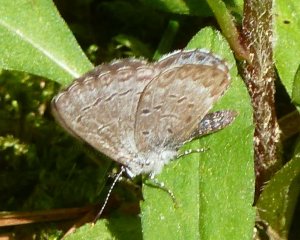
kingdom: Animalia
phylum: Arthropoda
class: Insecta
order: Lepidoptera
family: Lycaenidae
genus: Celastrina
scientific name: Celastrina lucia
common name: Northern Spring Azure
